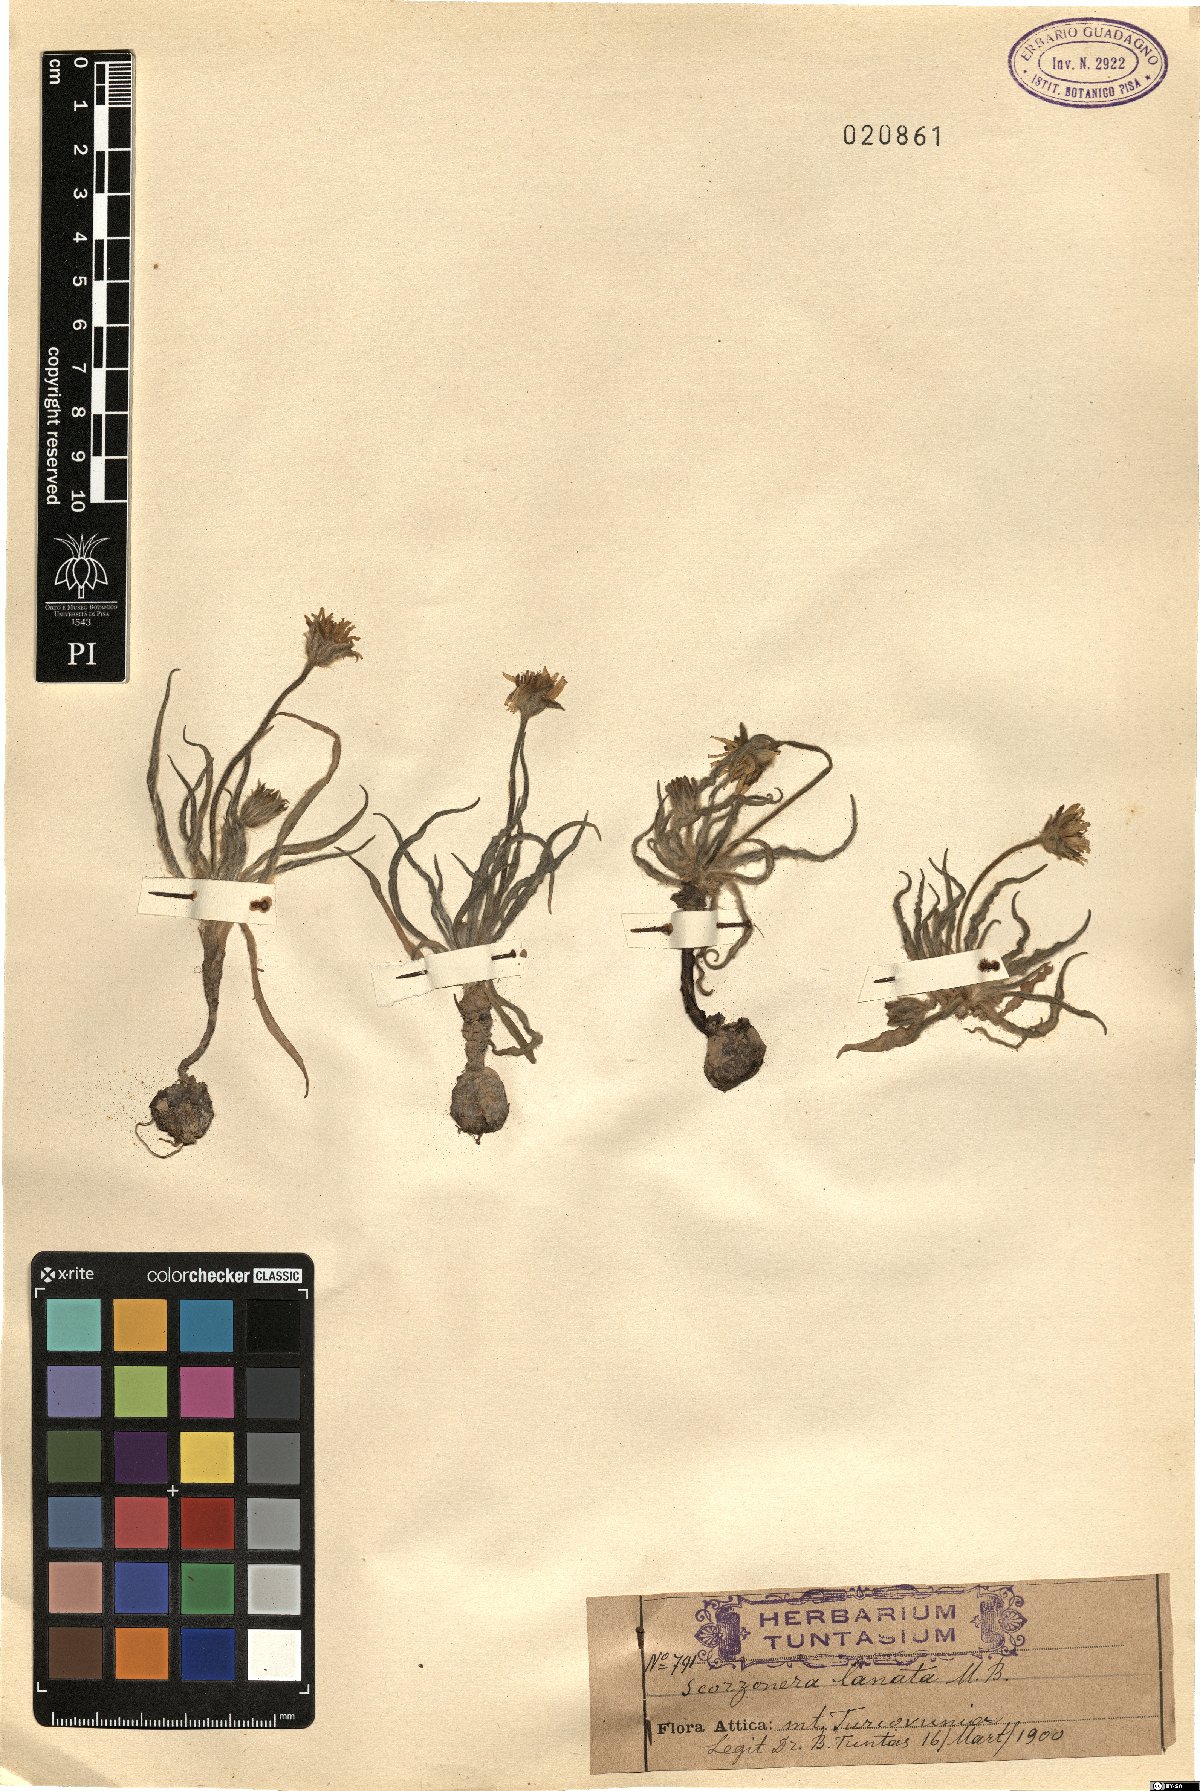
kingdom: Plantae
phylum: Tracheophyta
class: Magnoliopsida
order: Asterales
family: Asteraceae
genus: Bocquetia
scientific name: Bocquetia lanata
